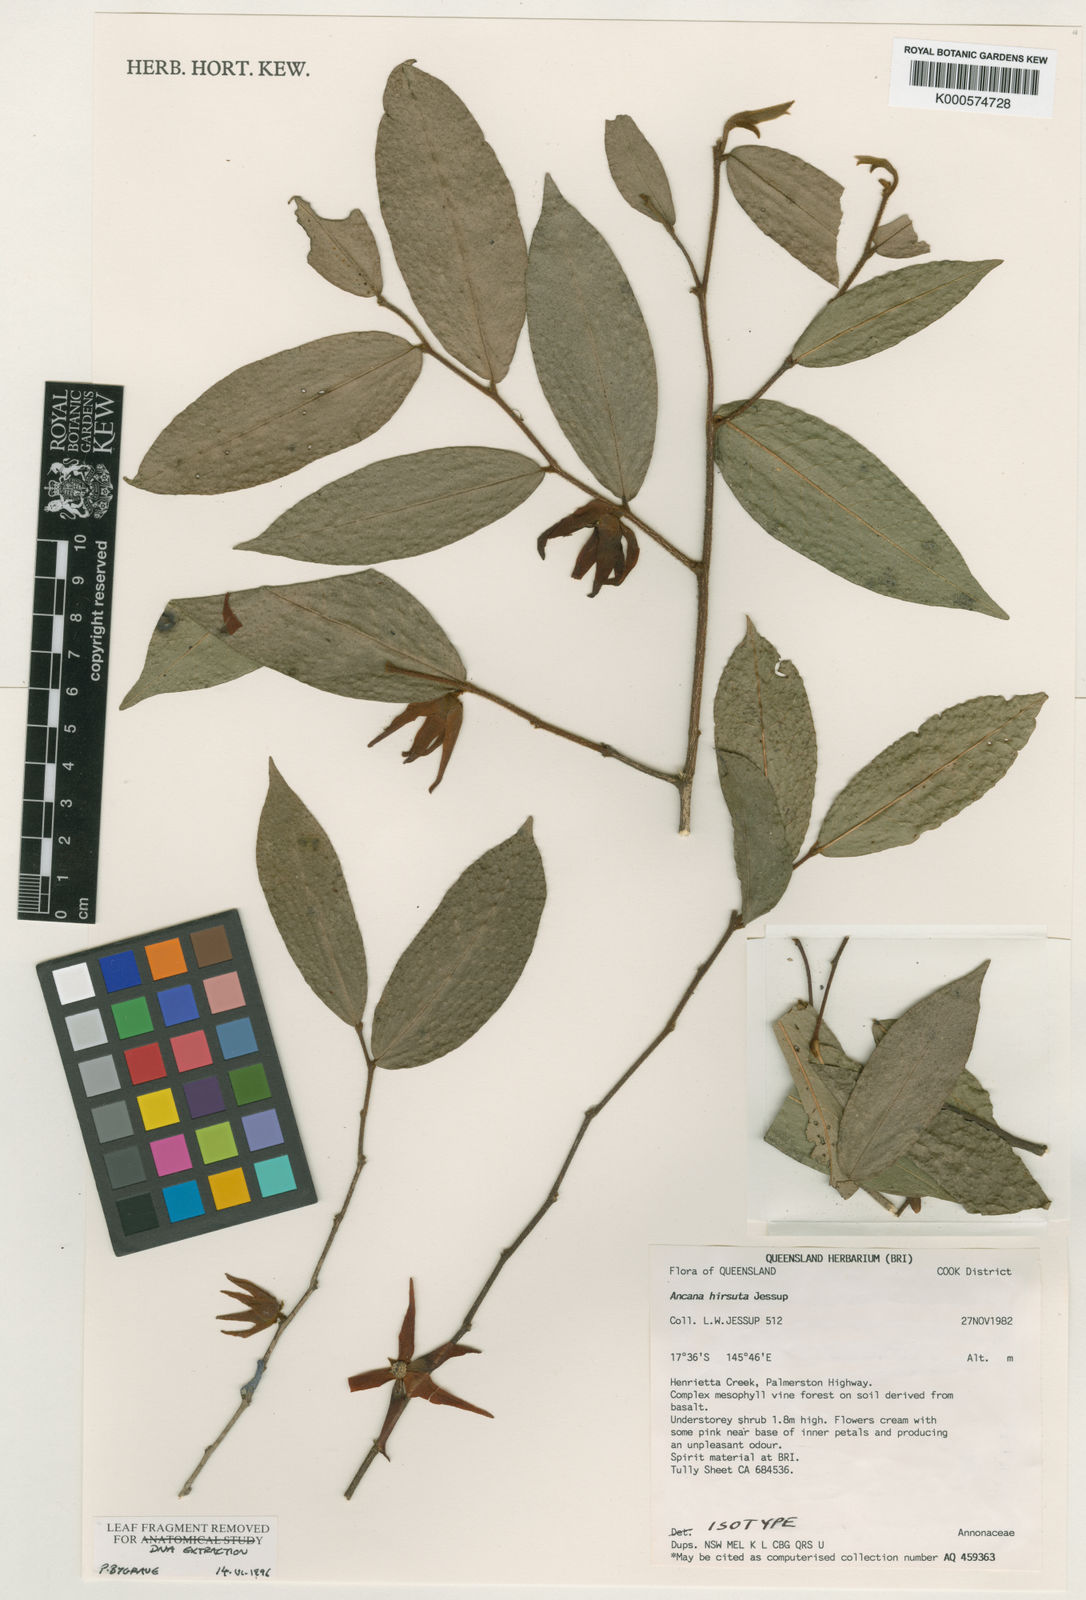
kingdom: Plantae
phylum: Tracheophyta
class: Magnoliopsida
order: Magnoliales
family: Annonaceae
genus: Meiogyne
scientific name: Meiogyne hirsuta
